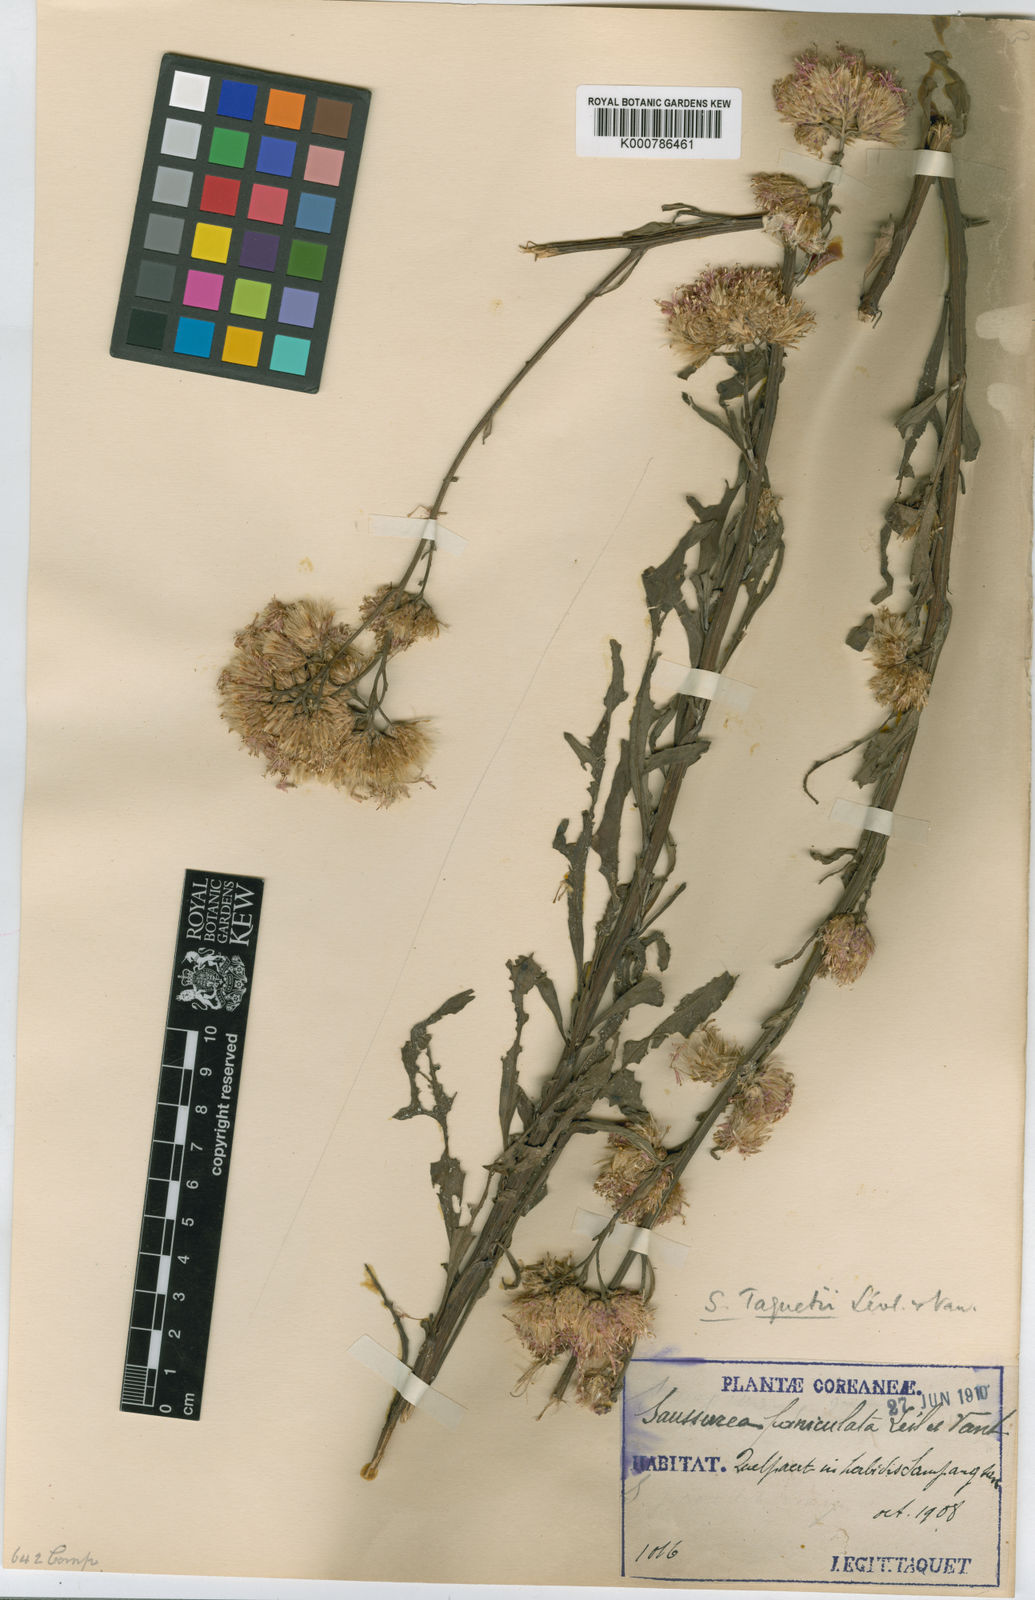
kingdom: Plantae
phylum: Tracheophyta
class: Liliopsida
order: Asparagales
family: Asparagaceae
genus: Hosta
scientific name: Hosta plantaginea
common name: August-lily
